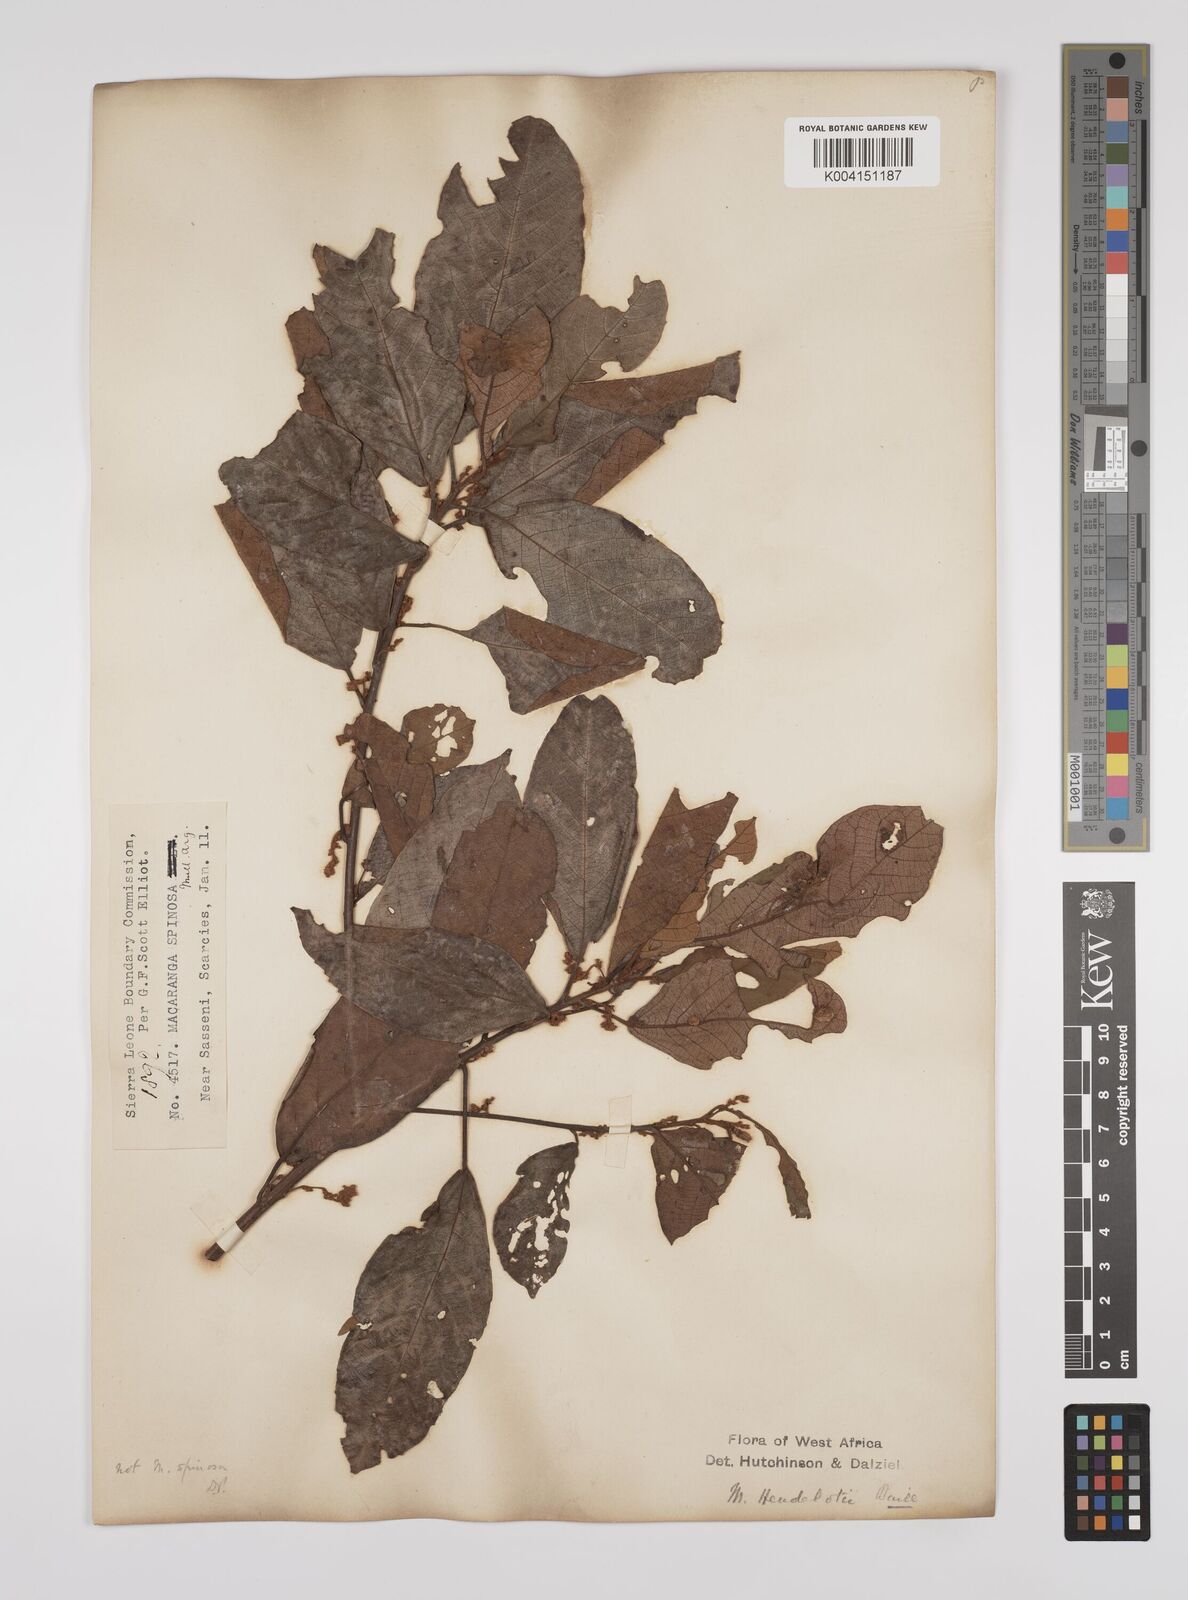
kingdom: Plantae
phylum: Tracheophyta
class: Magnoliopsida
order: Malpighiales
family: Euphorbiaceae
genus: Macaranga
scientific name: Macaranga heudelotii
